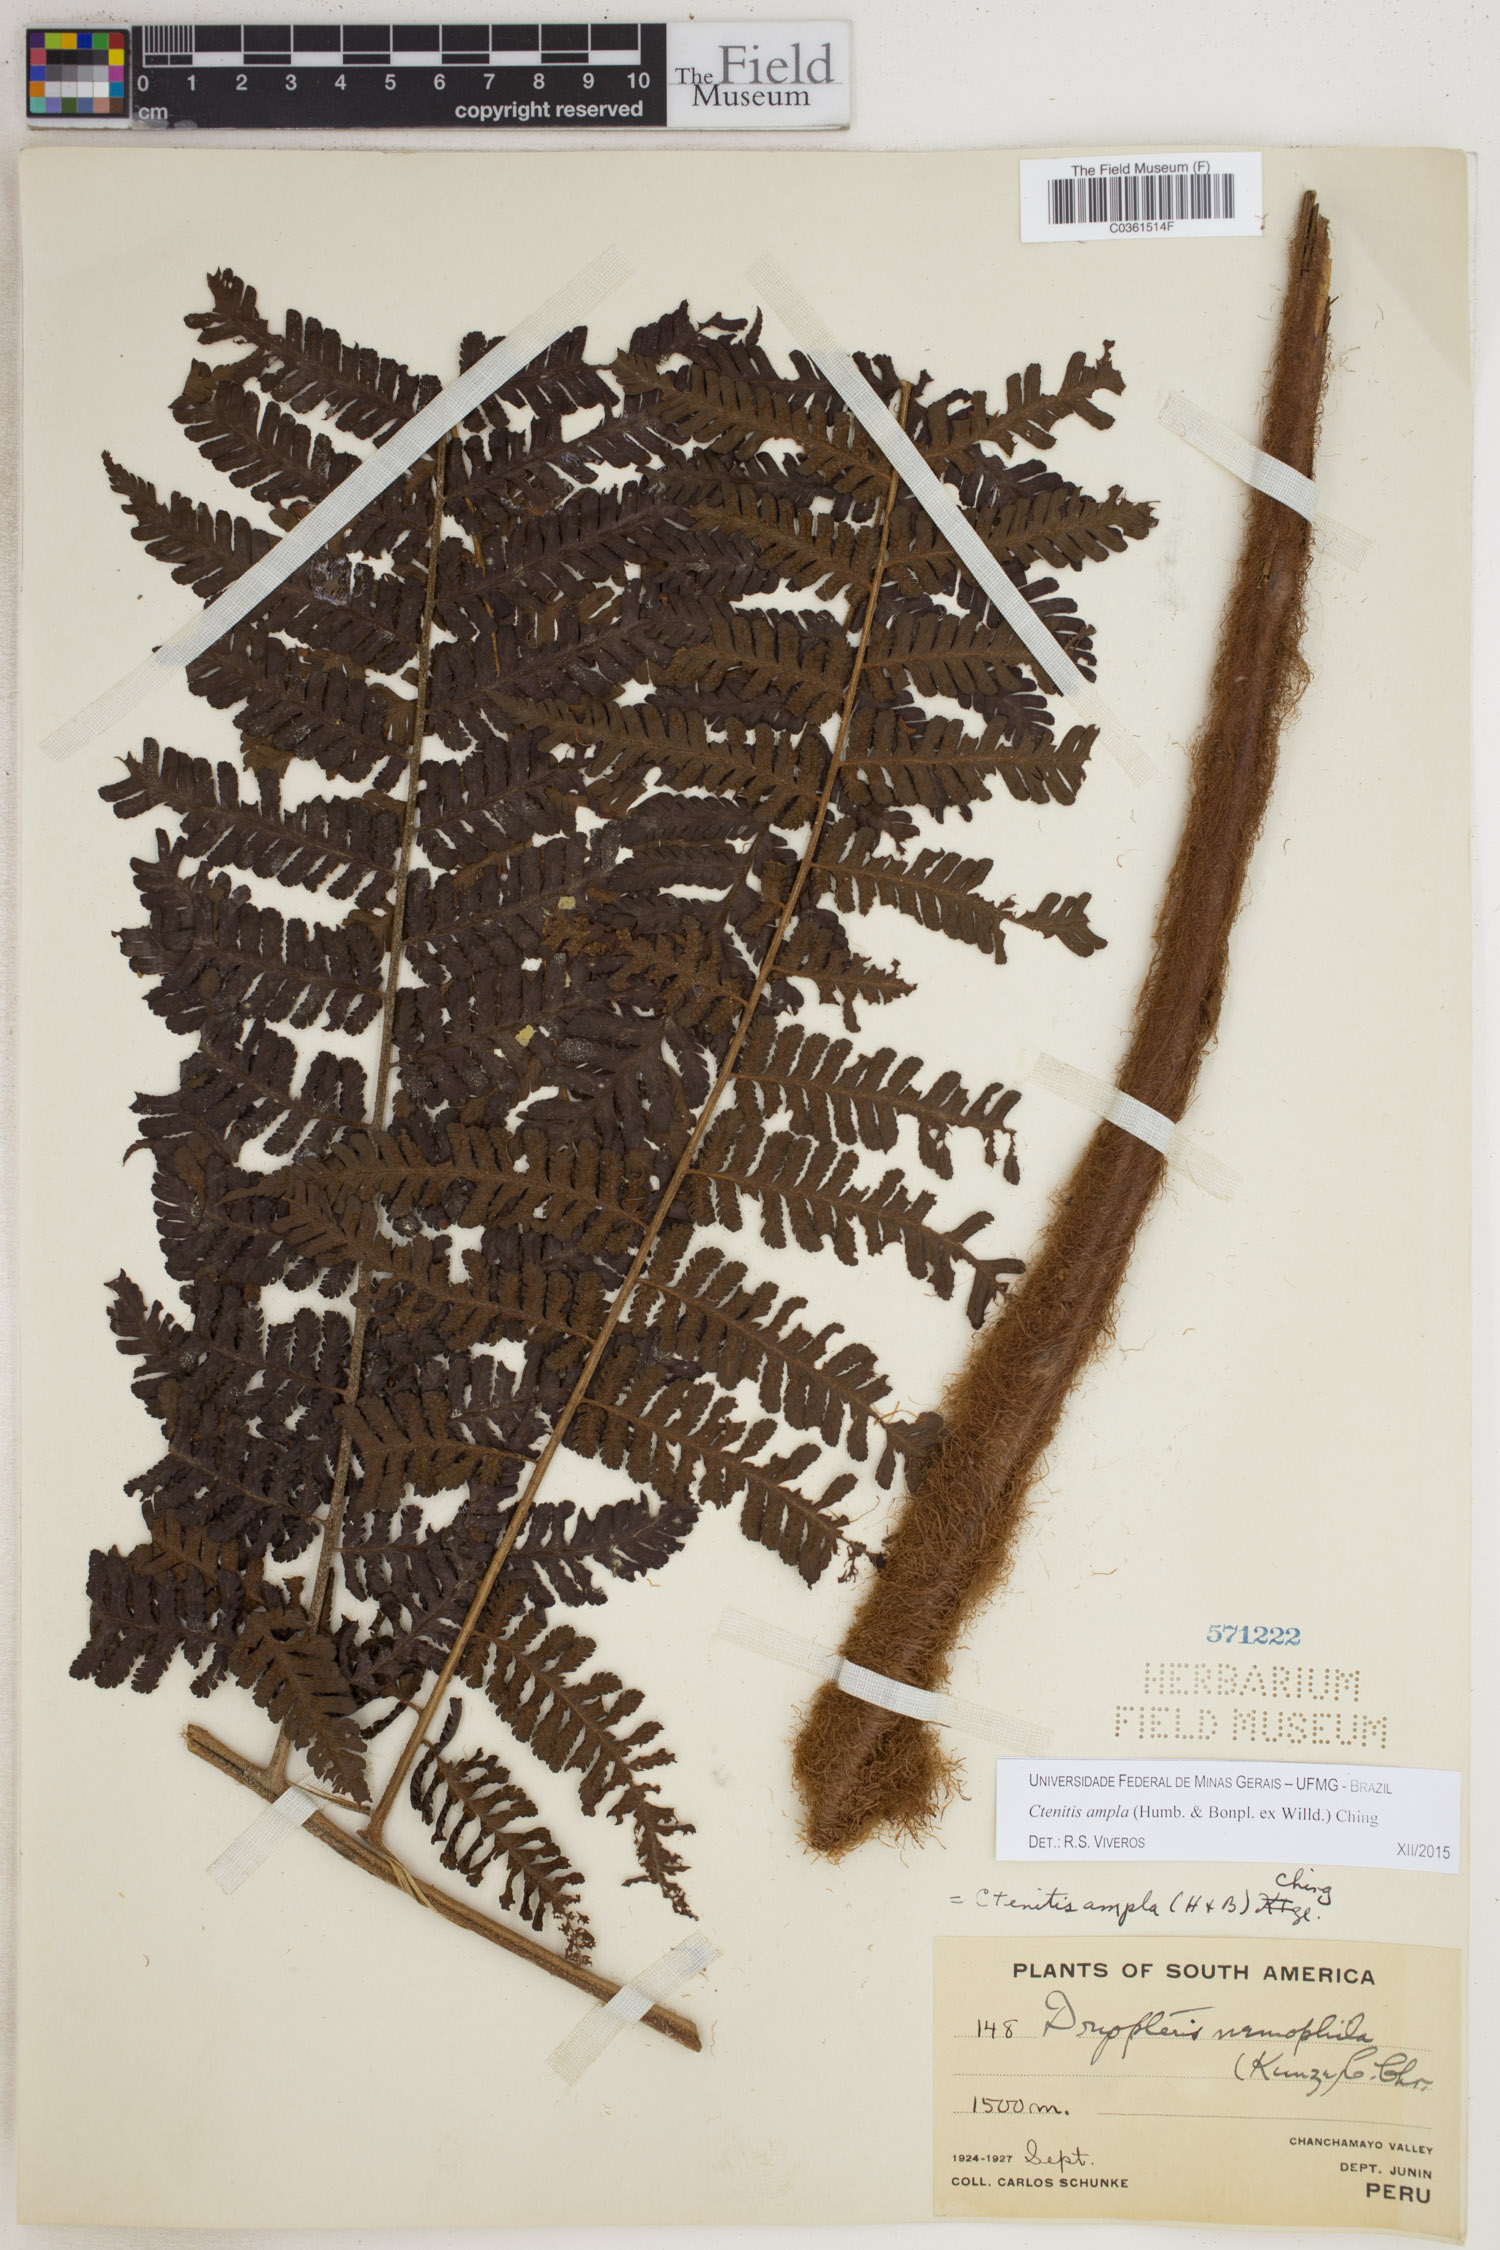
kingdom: Plantae
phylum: Tracheophyta
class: Polypodiopsida
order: Polypodiales
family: Dryopteridaceae
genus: Ctenitis
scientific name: Ctenitis sloanei
